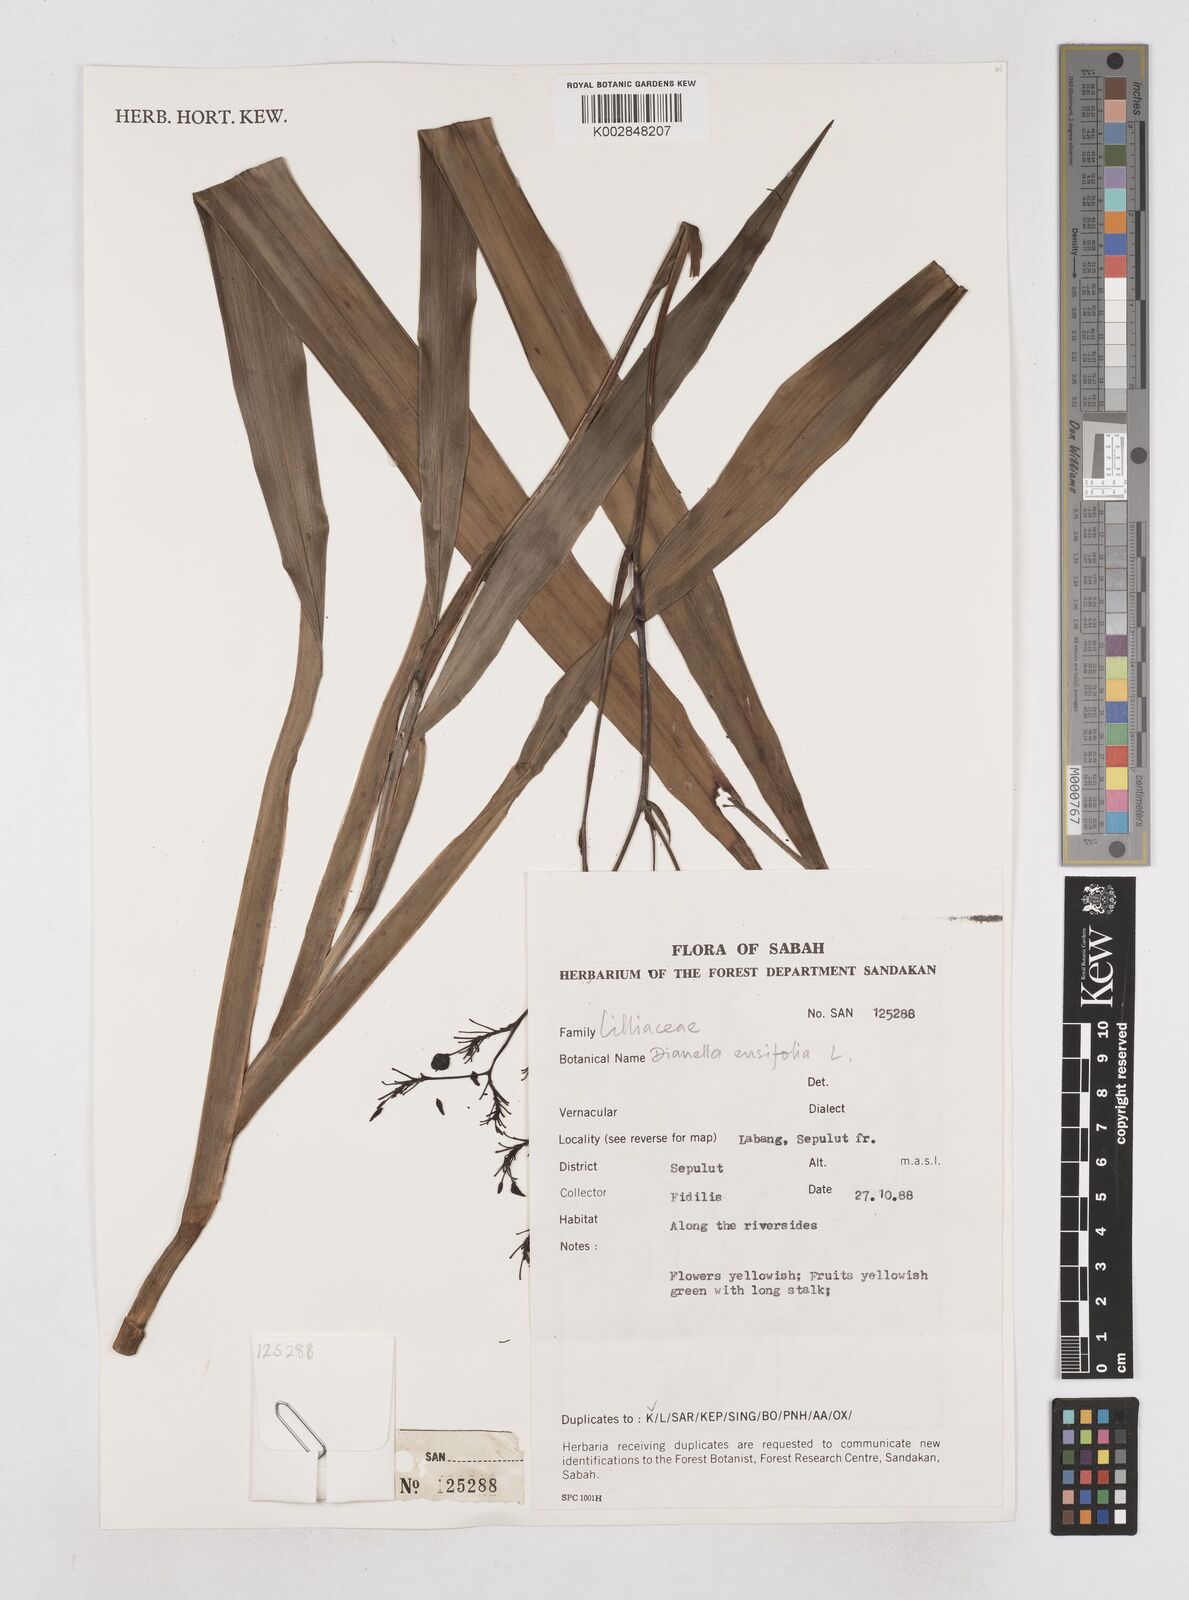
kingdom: Plantae
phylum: Tracheophyta
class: Liliopsida
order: Asparagales
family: Asphodelaceae
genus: Dianella
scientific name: Dianella ensifolia
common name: New zealand lilyplant
